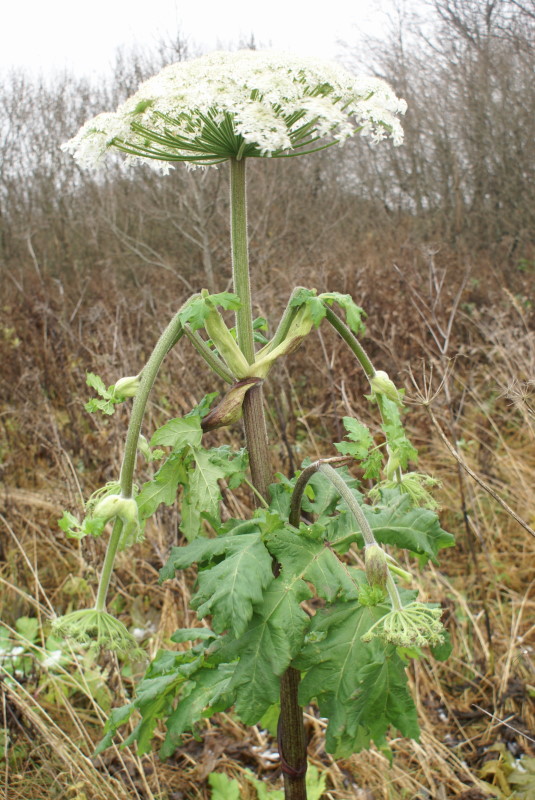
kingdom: Plantae
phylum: Tracheophyta
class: Magnoliopsida
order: Apiales
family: Apiaceae
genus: Heracleum
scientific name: Heracleum sosnowskyi
